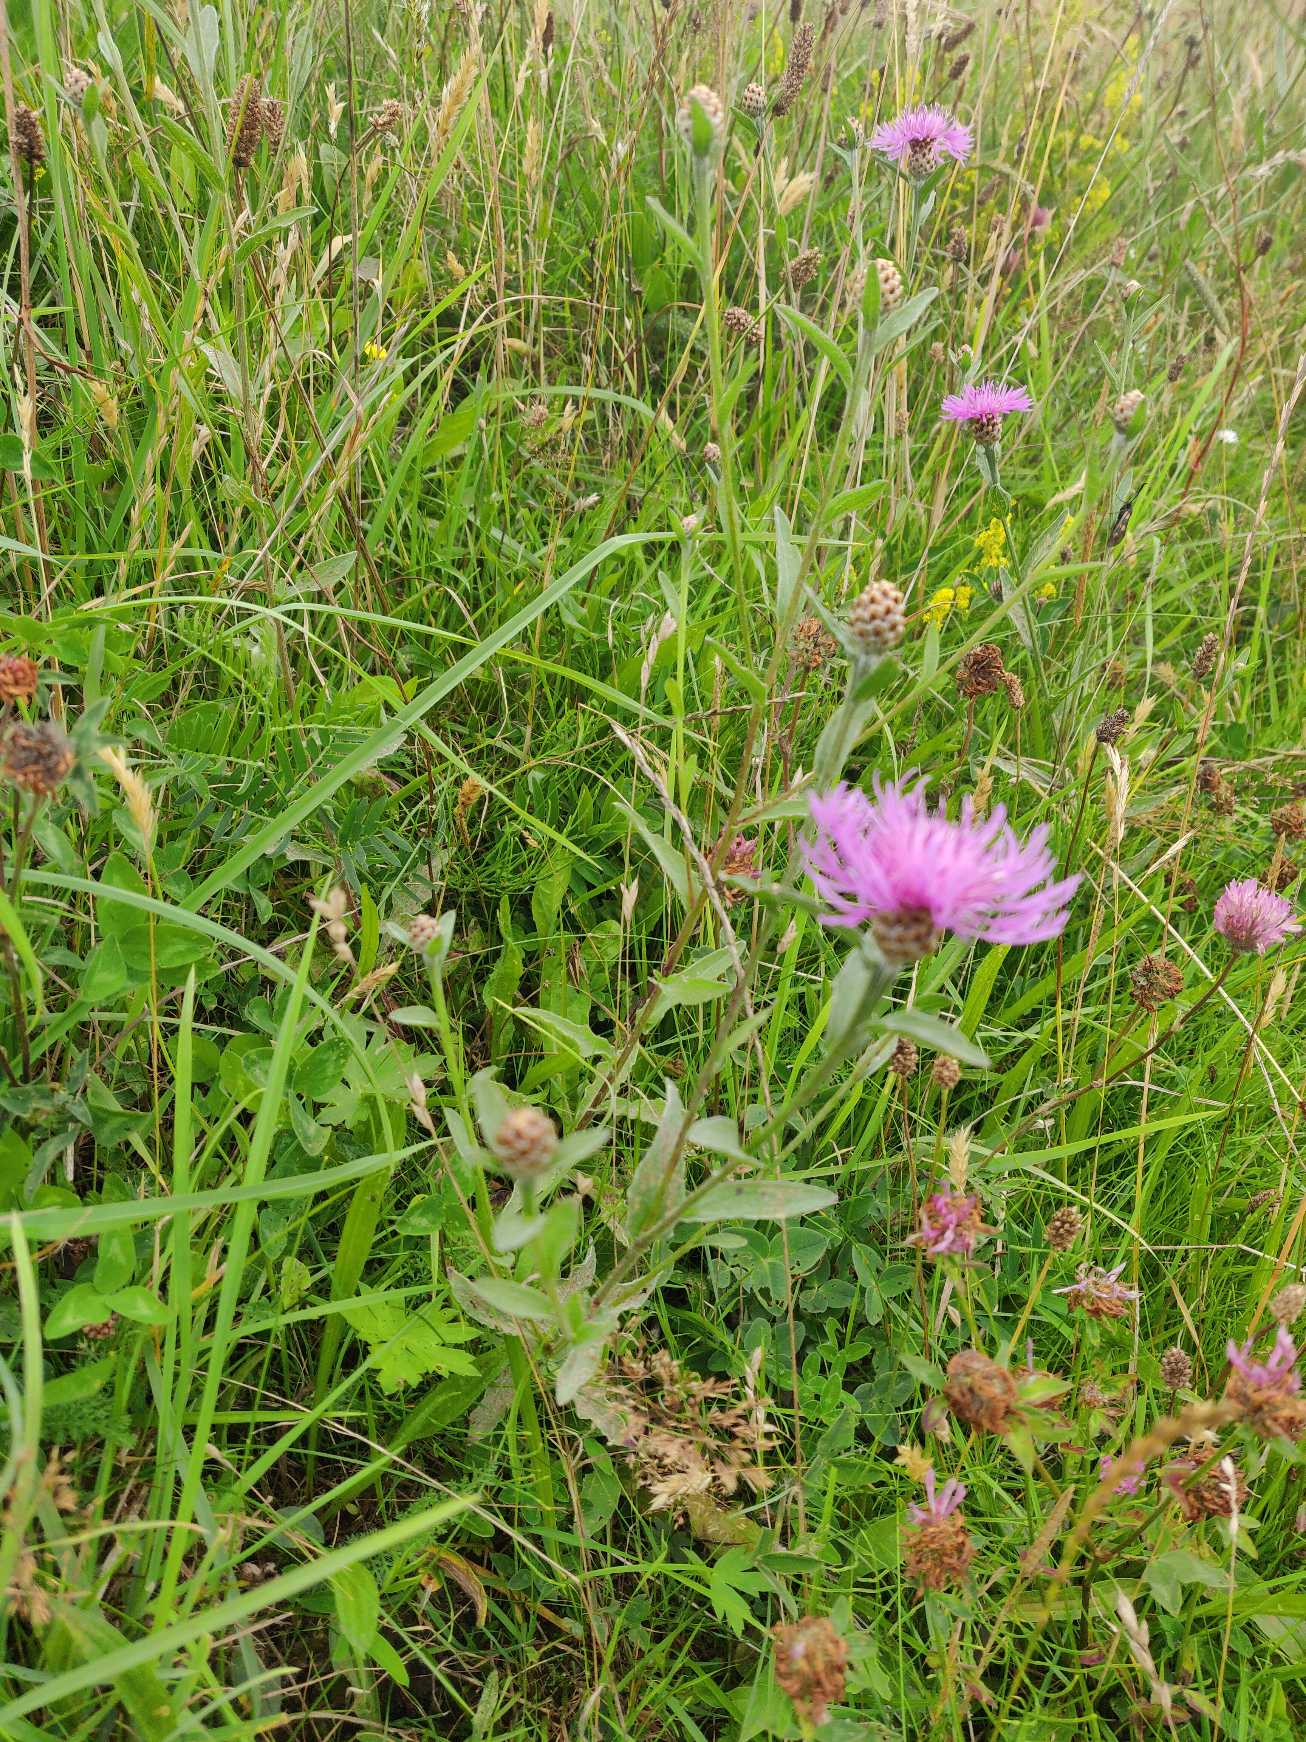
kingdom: Plantae
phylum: Tracheophyta
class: Magnoliopsida
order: Asterales
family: Asteraceae
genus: Centaurea
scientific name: Centaurea jacea
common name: Almindelig knopurt
